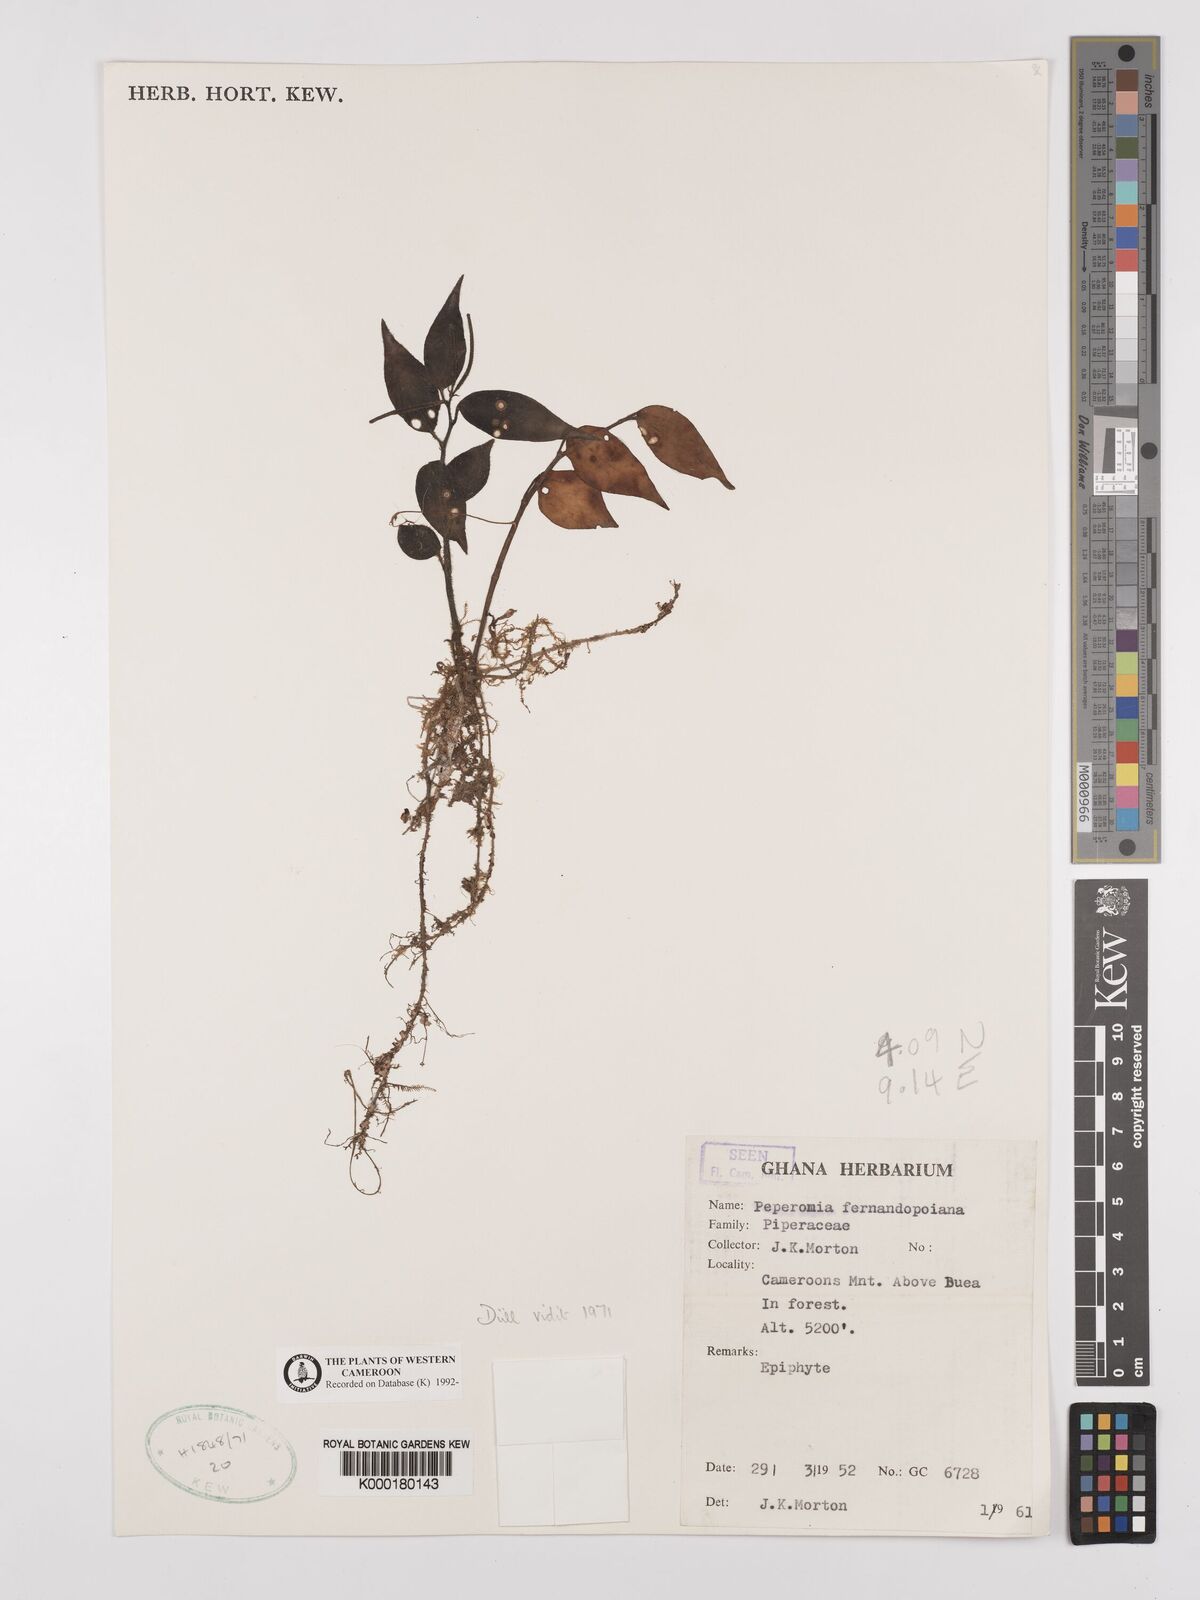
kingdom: Plantae
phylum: Tracheophyta
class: Magnoliopsida
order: Piperales
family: Piperaceae
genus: Peperomia
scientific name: Peperomia fernandopoiana
